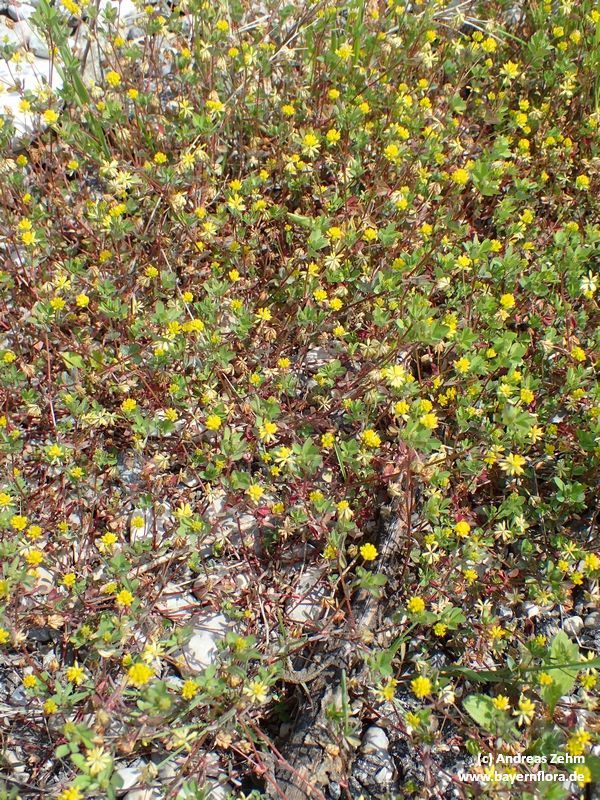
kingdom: Plantae
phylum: Tracheophyta
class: Magnoliopsida
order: Fabales
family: Fabaceae
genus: Trifolium
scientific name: Trifolium dubium
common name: Suckling clover
